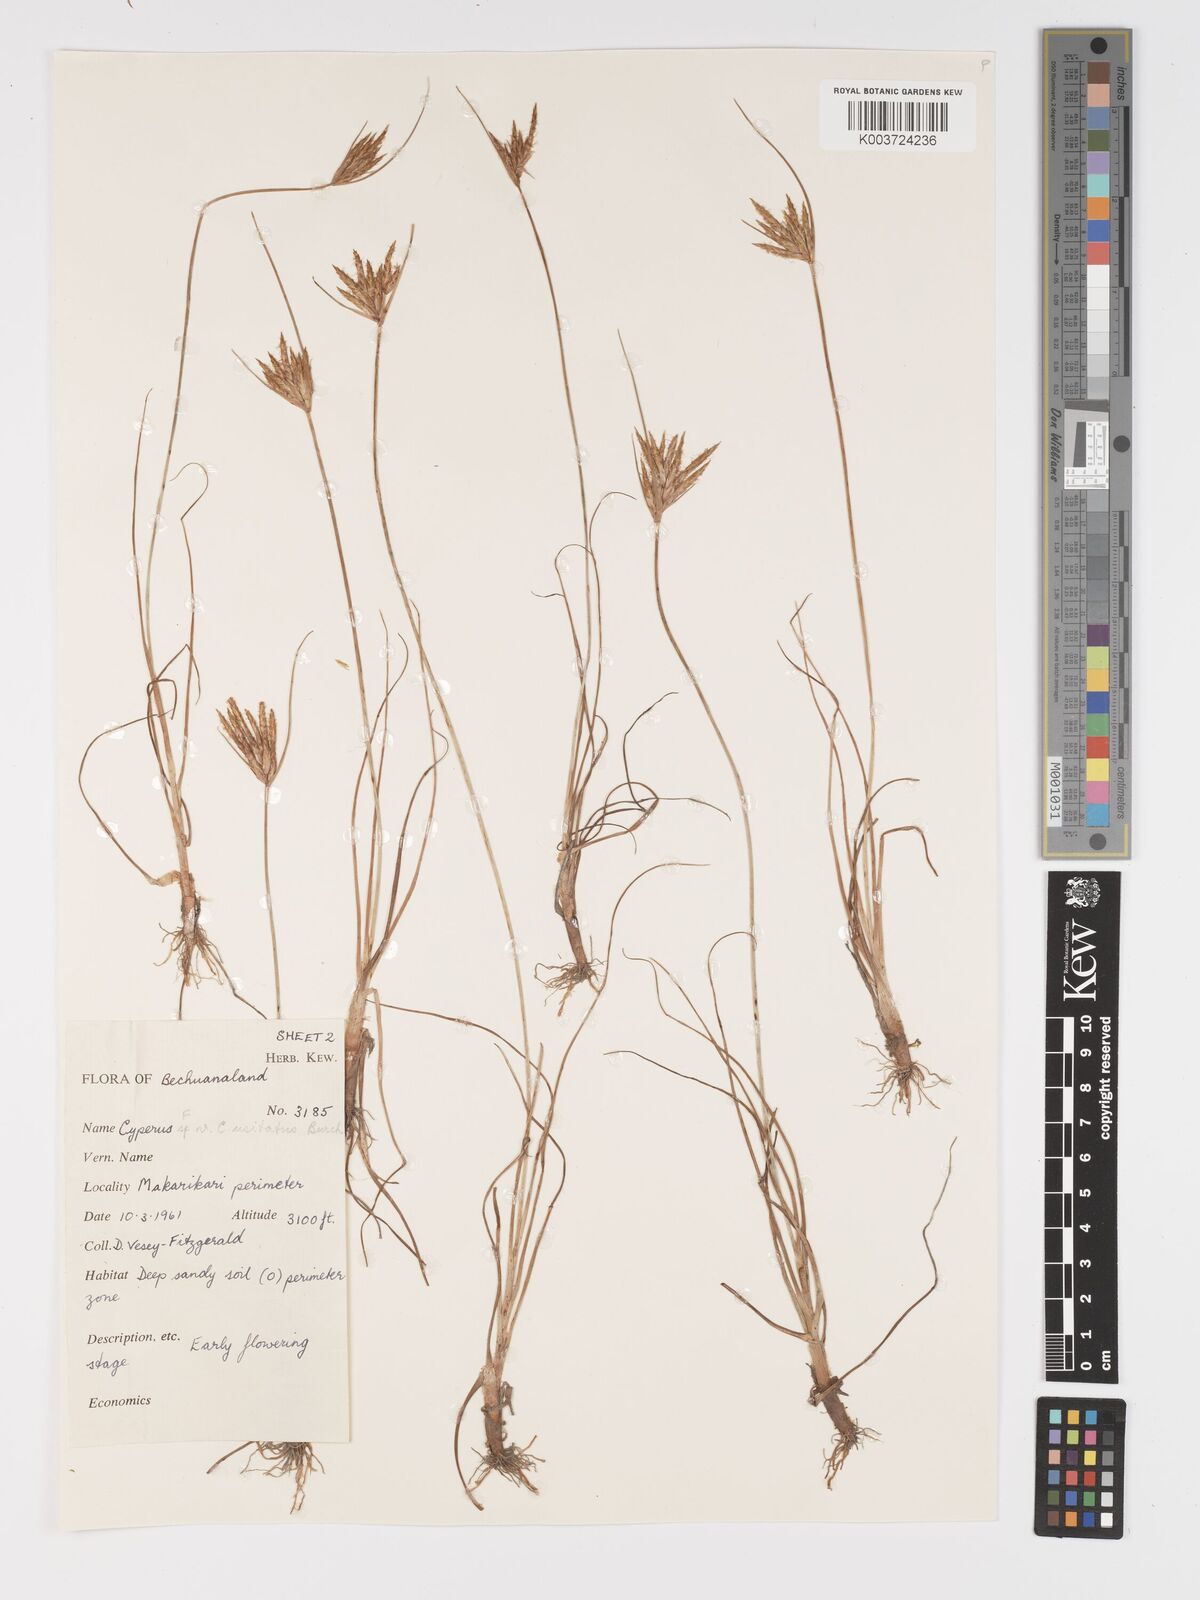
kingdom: Plantae
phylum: Tracheophyta
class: Liliopsida
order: Poales
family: Cyperaceae
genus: Cyperus
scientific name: Cyperus palmatus
